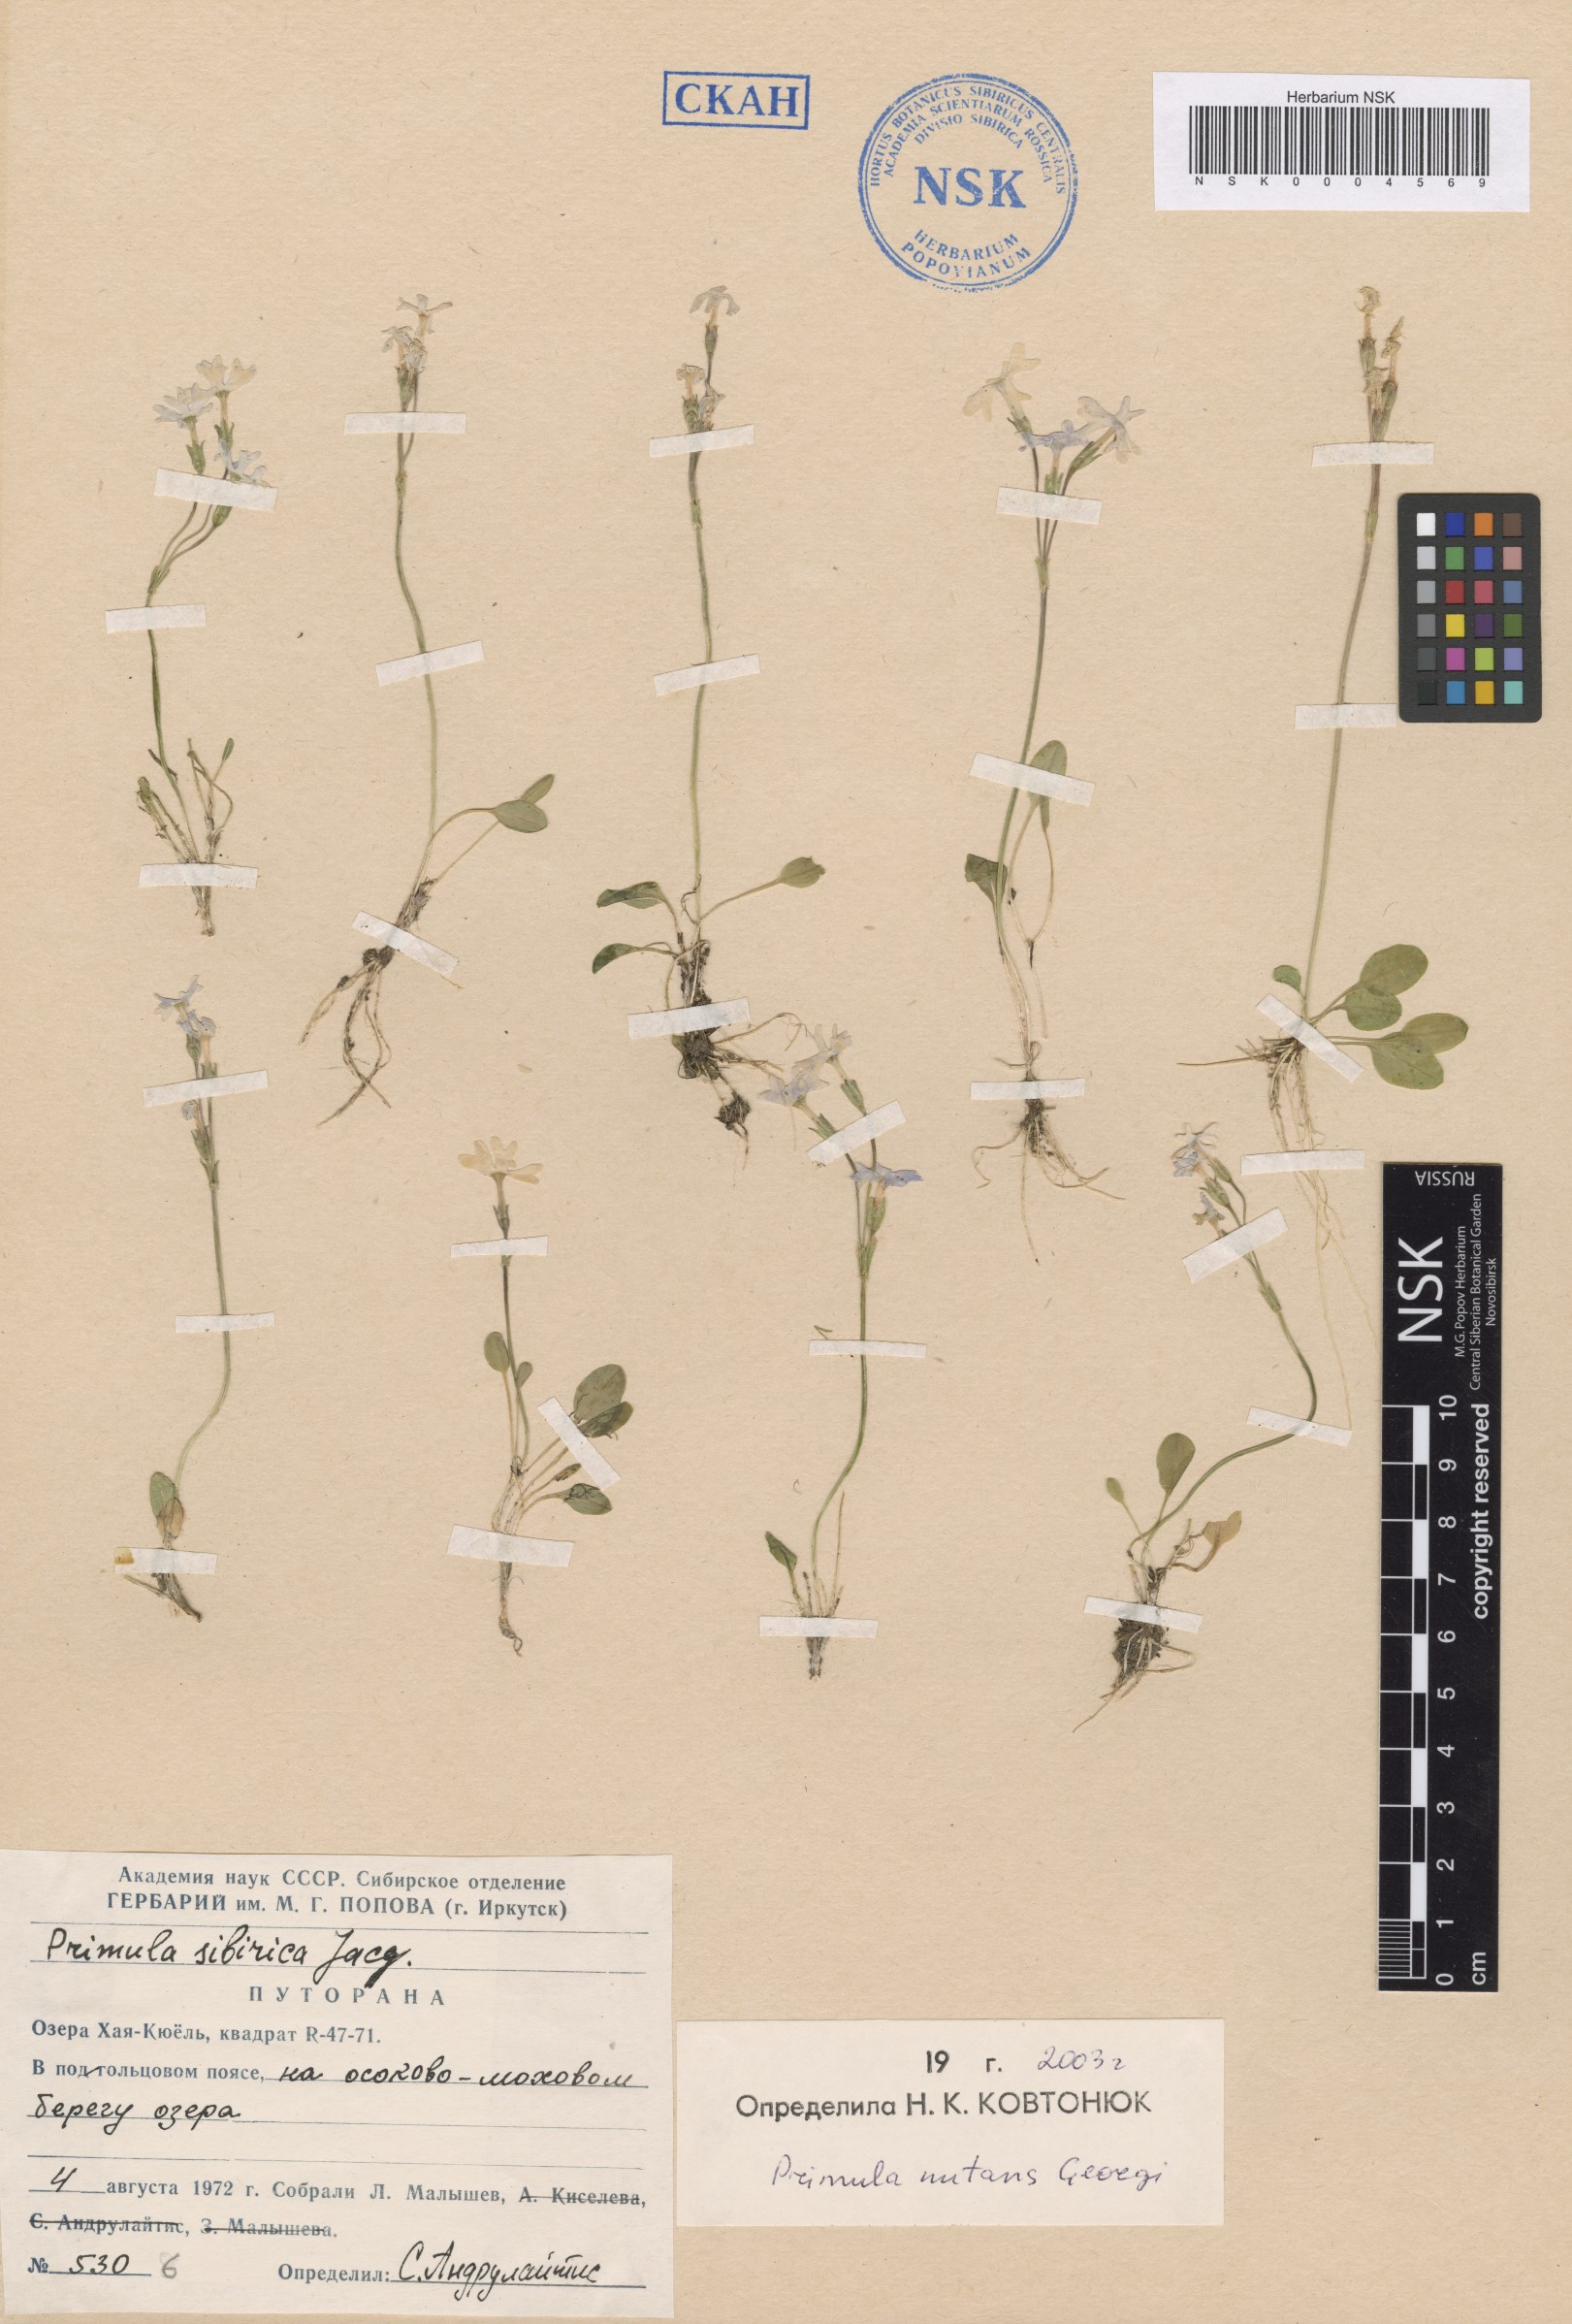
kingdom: Plantae
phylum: Tracheophyta
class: Magnoliopsida
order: Ericales
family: Primulaceae
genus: Primula
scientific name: Primula nutans
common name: Siberian primrose
